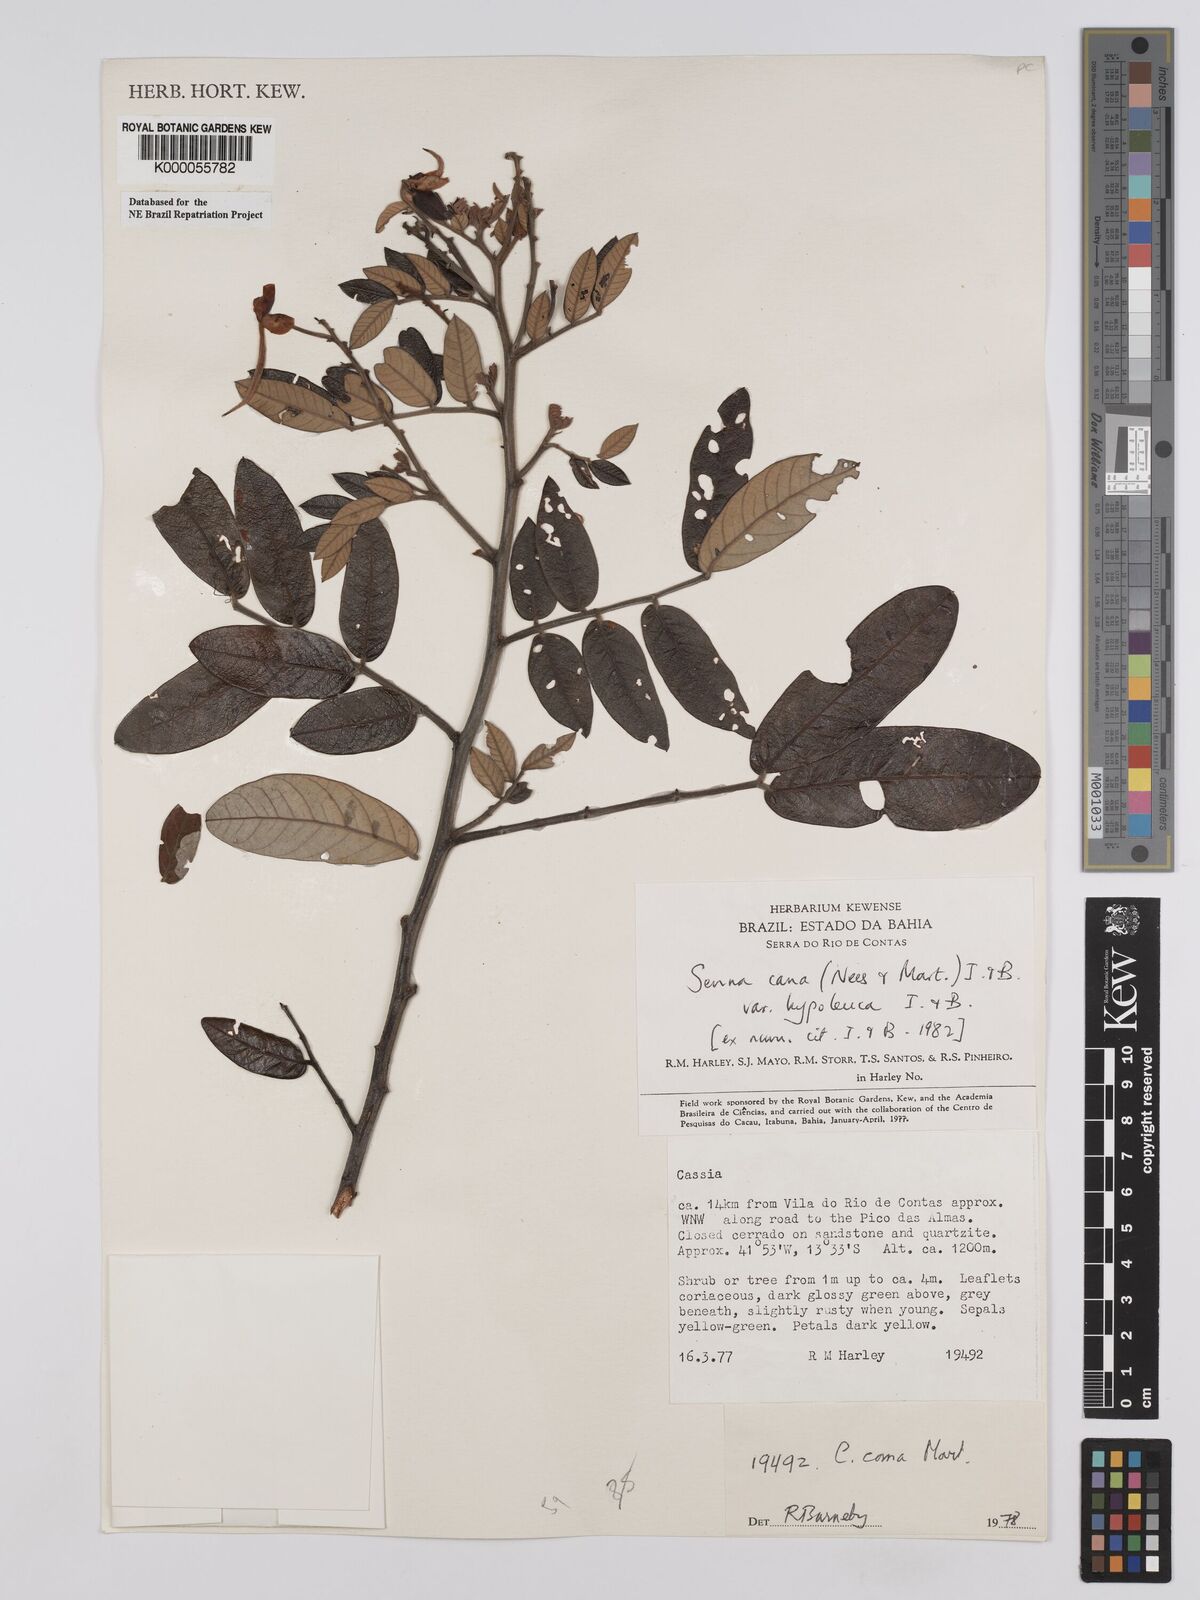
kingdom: Plantae
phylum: Tracheophyta
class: Magnoliopsida
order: Fabales
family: Fabaceae
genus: Senna
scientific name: Senna cana
